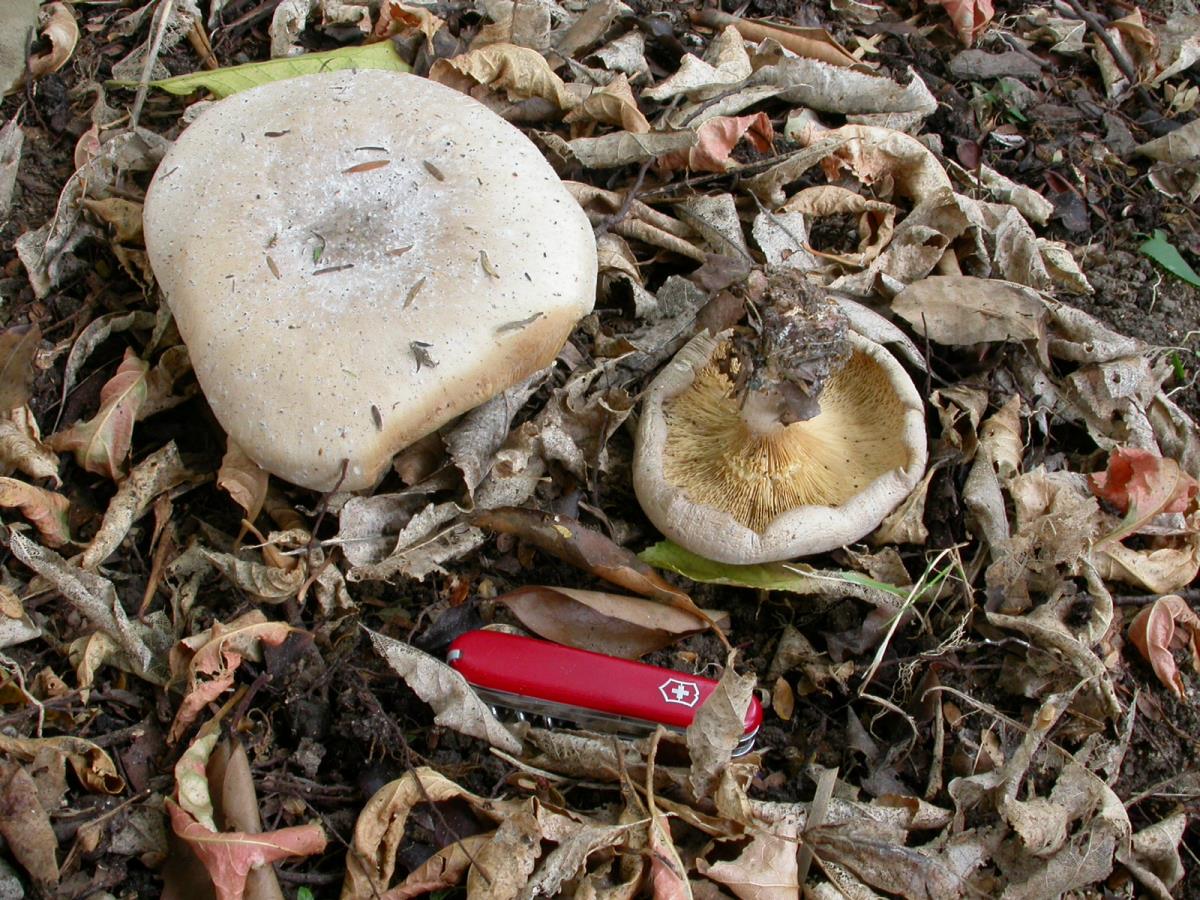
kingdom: Fungi
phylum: Basidiomycota
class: Agaricomycetes
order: Agaricales
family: Tricholomataceae
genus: Clitocybe
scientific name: Clitocybe nebularis
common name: Clouded agaric
